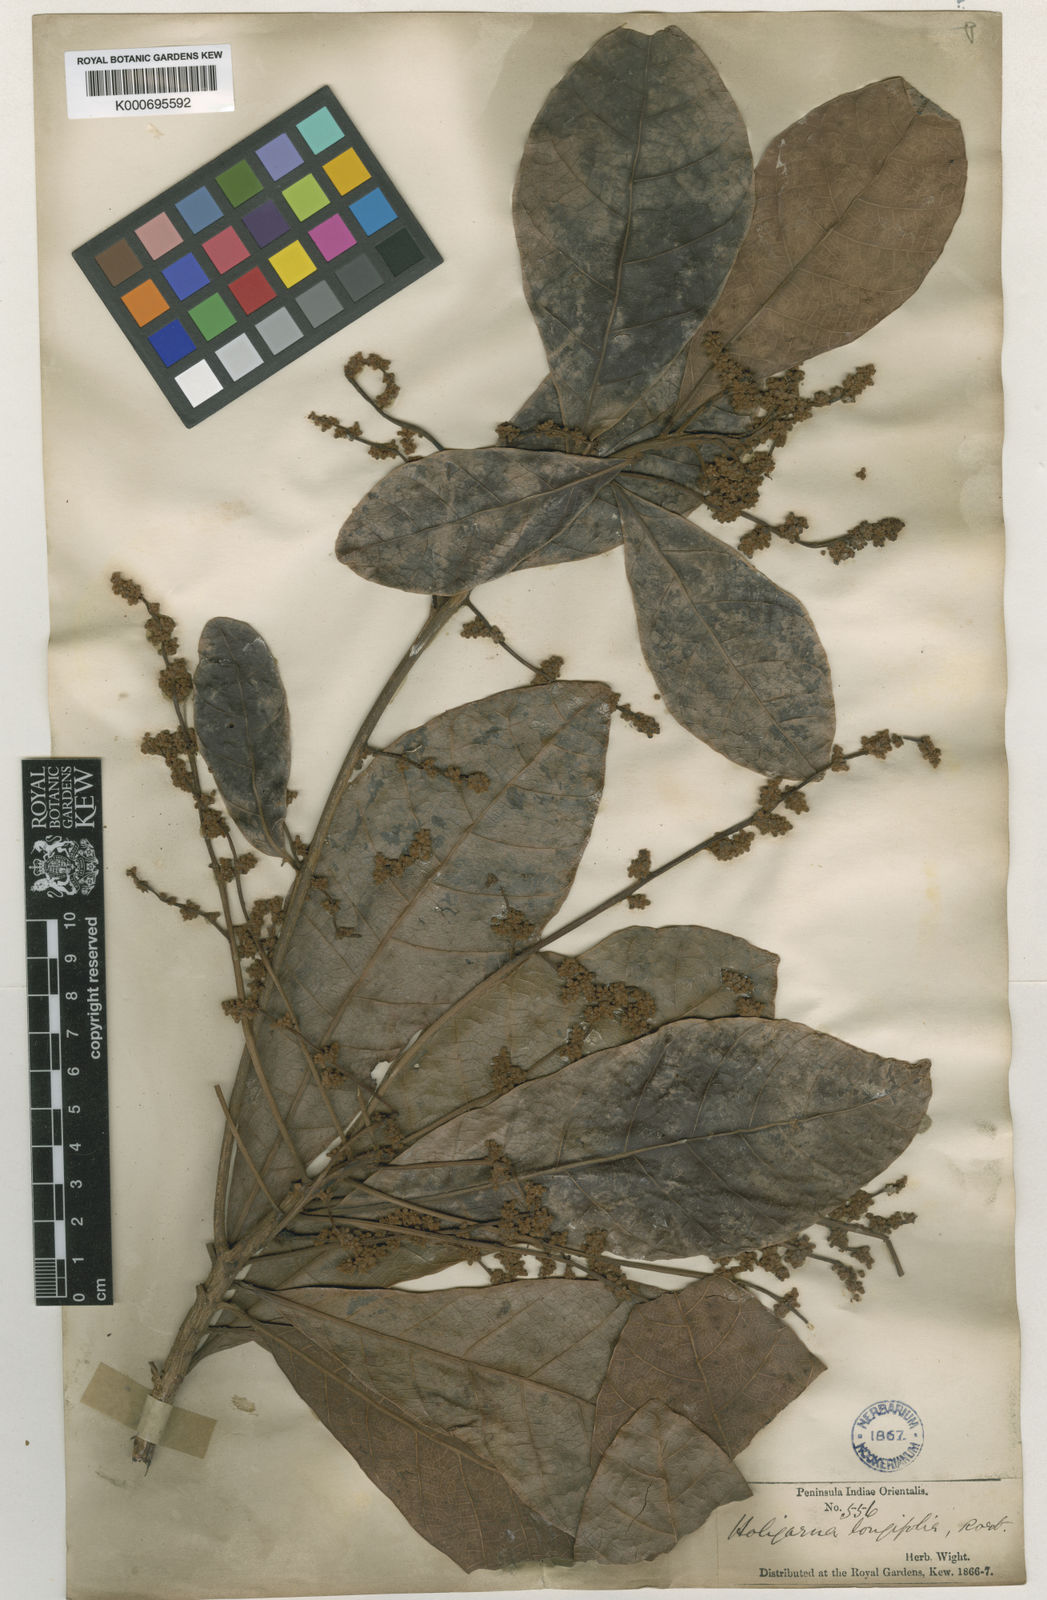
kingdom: Plantae
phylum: Tracheophyta
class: Magnoliopsida
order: Sapindales
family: Anacardiaceae
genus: Holigarna
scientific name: Holigarna arnottiana
